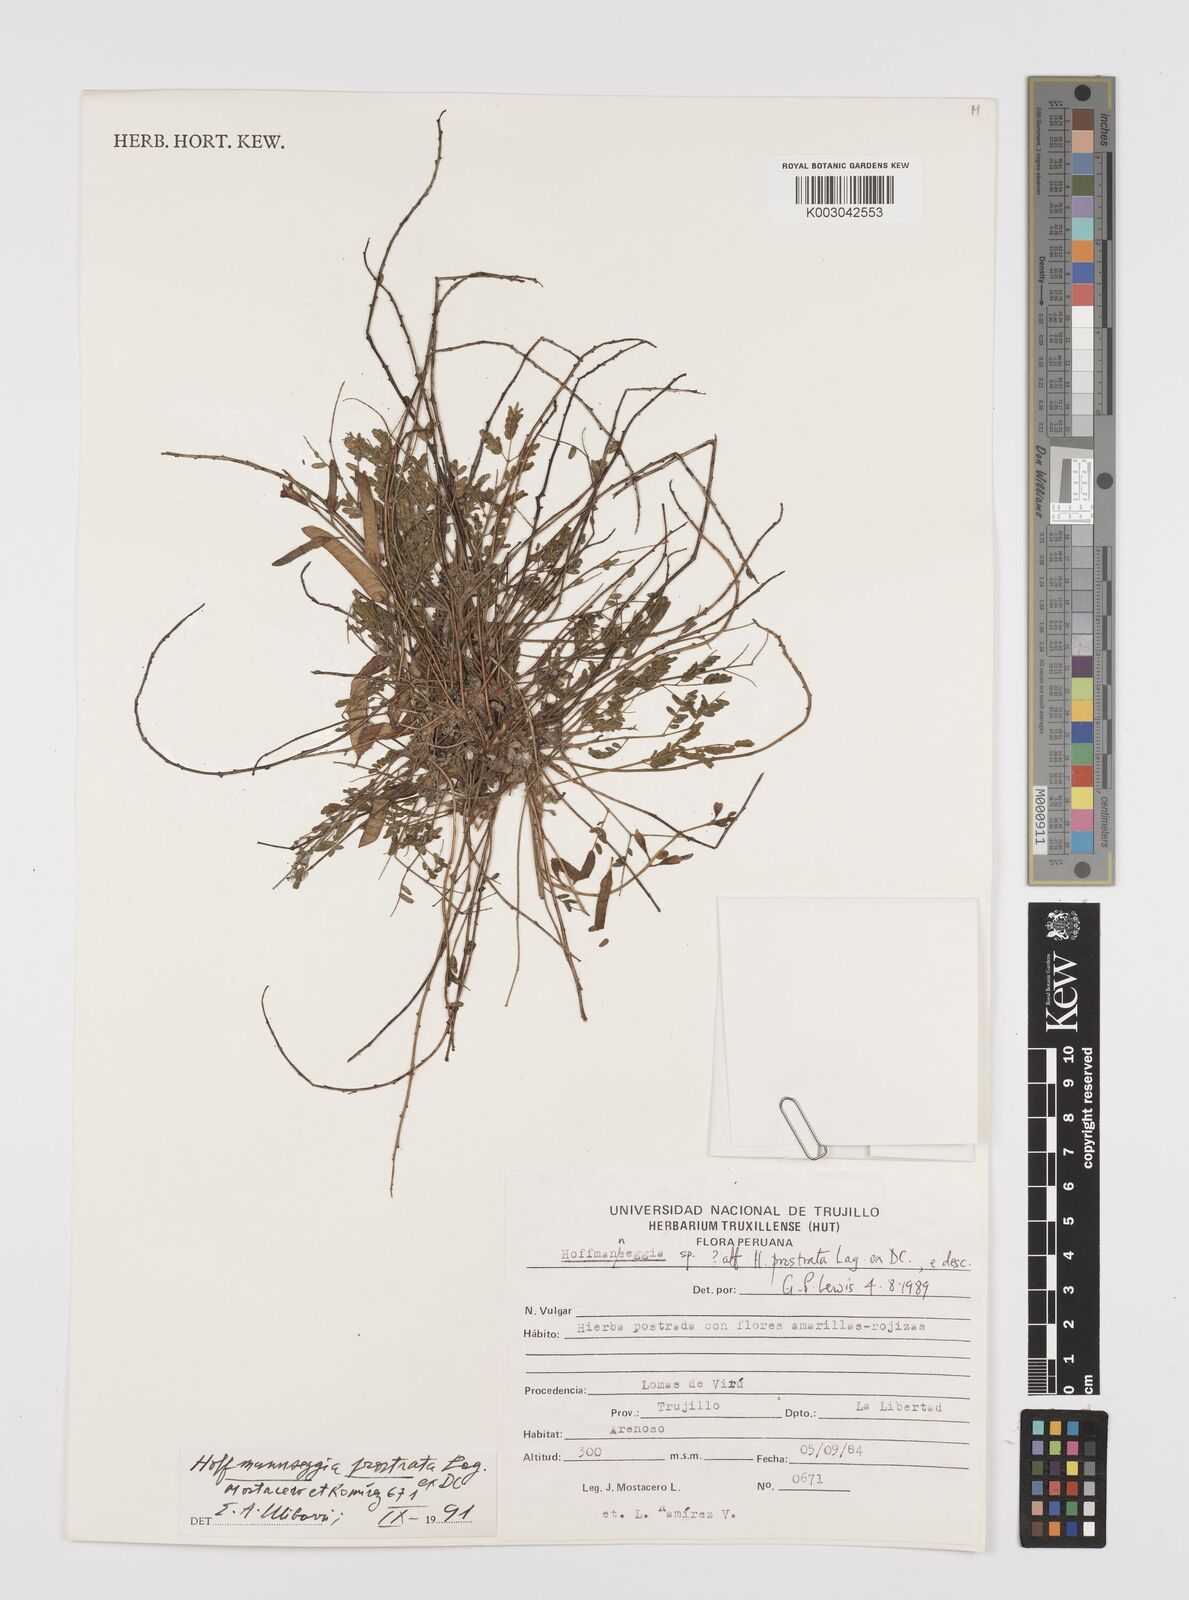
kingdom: Plantae
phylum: Tracheophyta
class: Magnoliopsida
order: Fabales
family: Fabaceae
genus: Hoffmannseggia
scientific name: Hoffmannseggia prostrata
